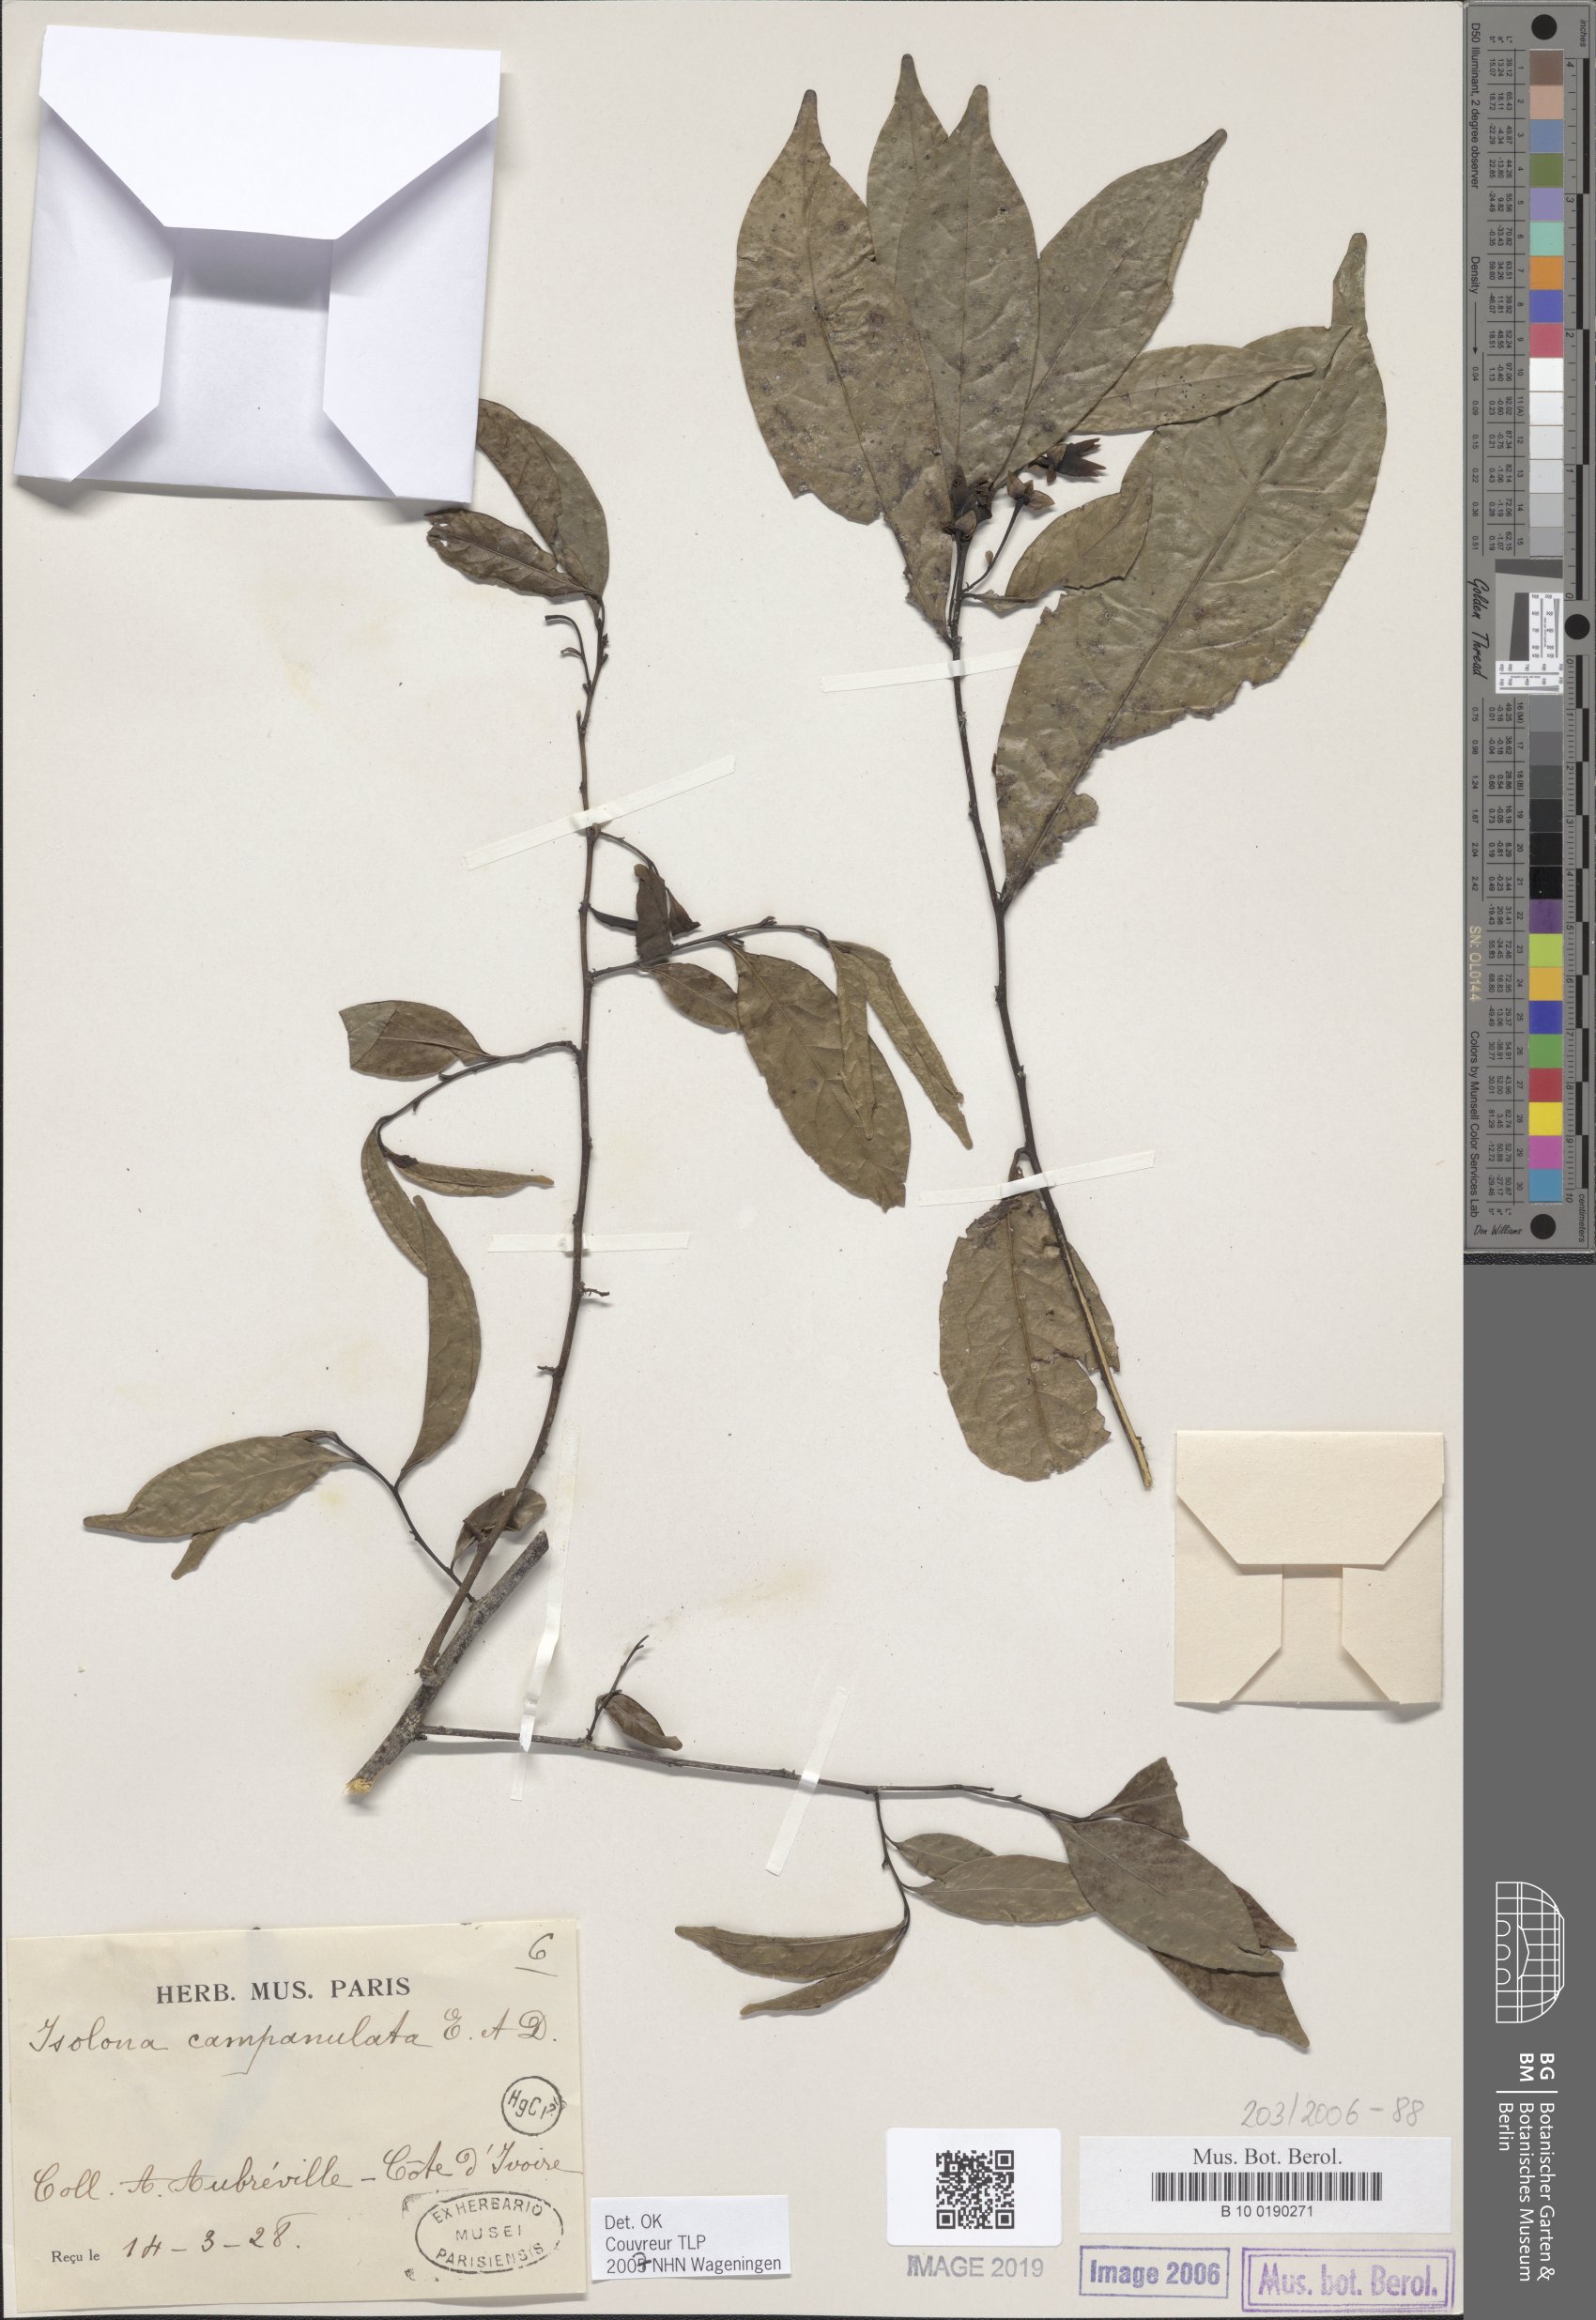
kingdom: Plantae
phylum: Tracheophyta
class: Magnoliopsida
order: Magnoliales
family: Annonaceae
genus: Isolona
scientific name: Isolona campanulata
